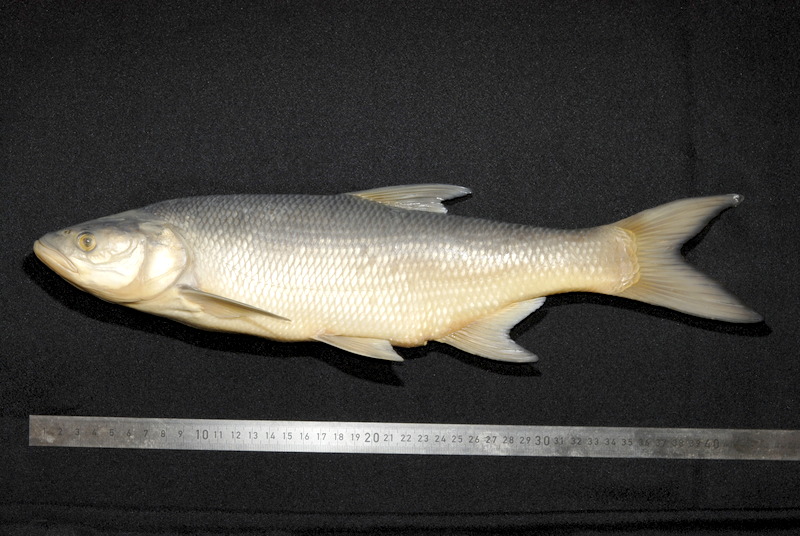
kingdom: Animalia
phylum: Chordata
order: Cypriniformes
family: Cyprinidae
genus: Leuciscus
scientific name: Leuciscus aspius
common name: Asp
